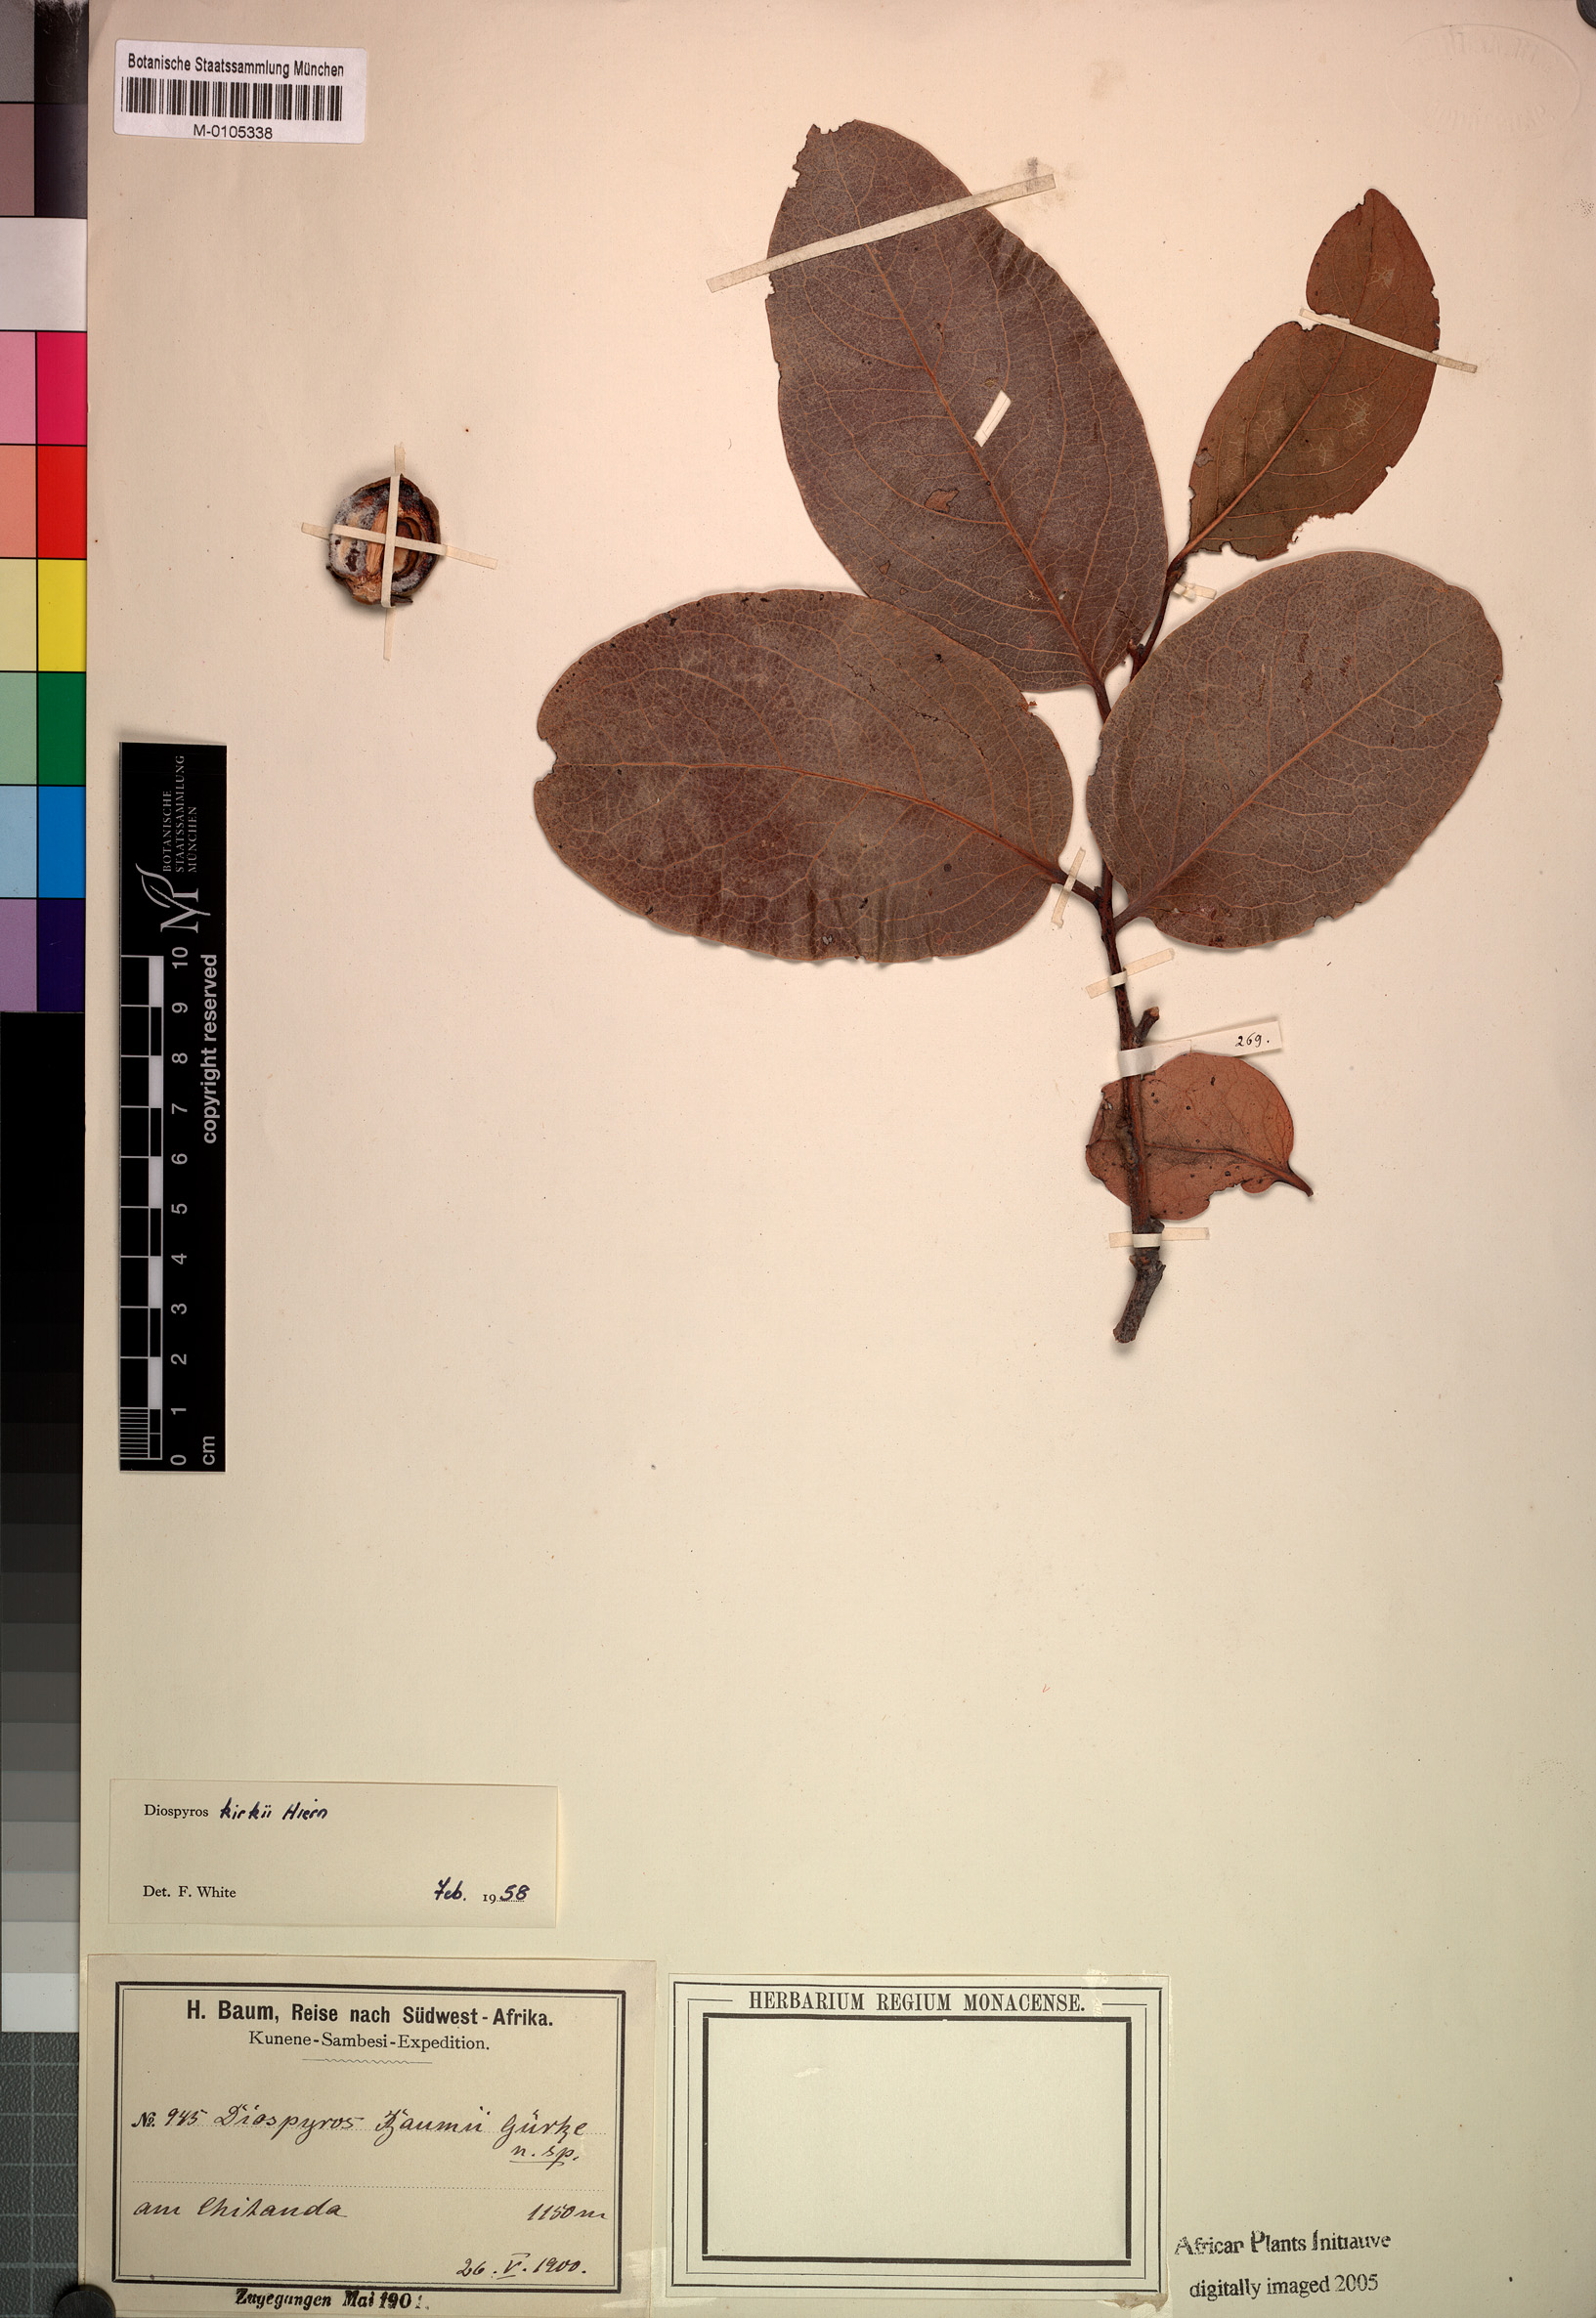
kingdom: Plantae
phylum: Tracheophyta
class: Magnoliopsida
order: Ericales
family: Ebenaceae
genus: Diospyros
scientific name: Diospyros kirkii
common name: Large-leaved jackal berry
